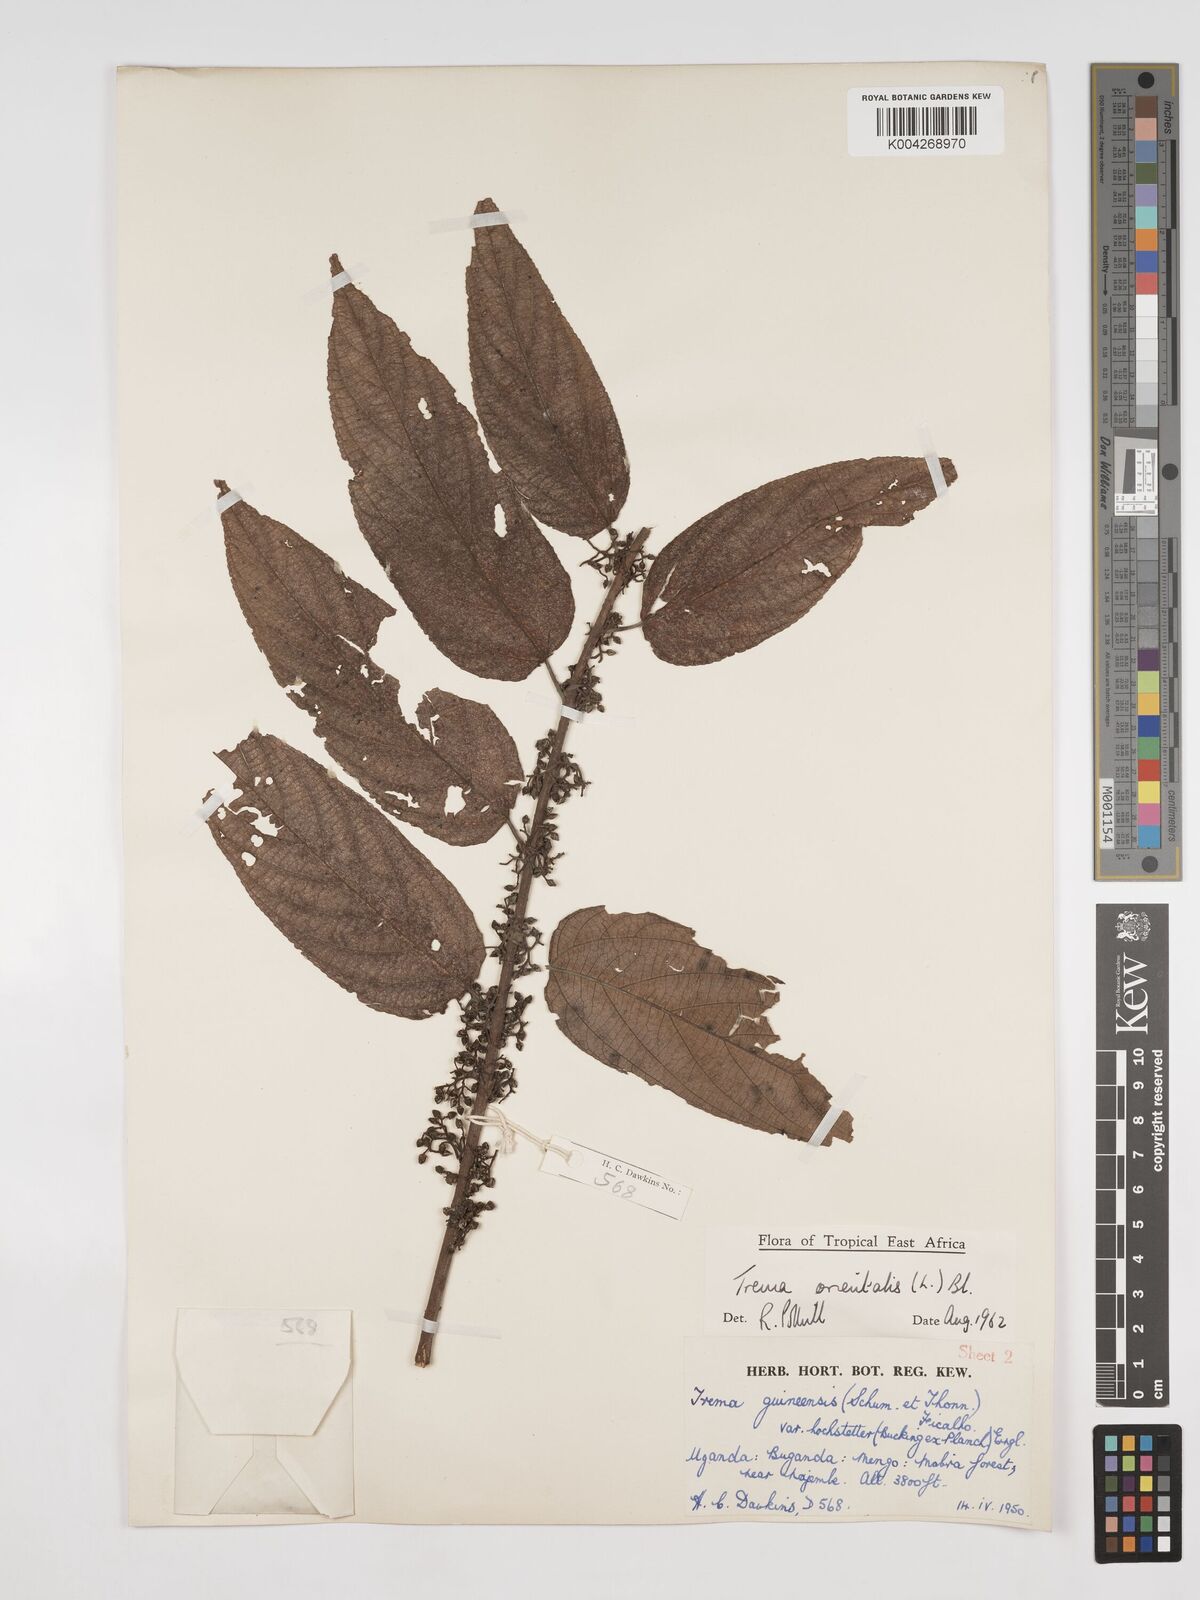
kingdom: Plantae
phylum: Tracheophyta
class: Magnoliopsida
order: Rosales
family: Cannabaceae
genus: Trema
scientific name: Trema orientale
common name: Indian charcoal tree
